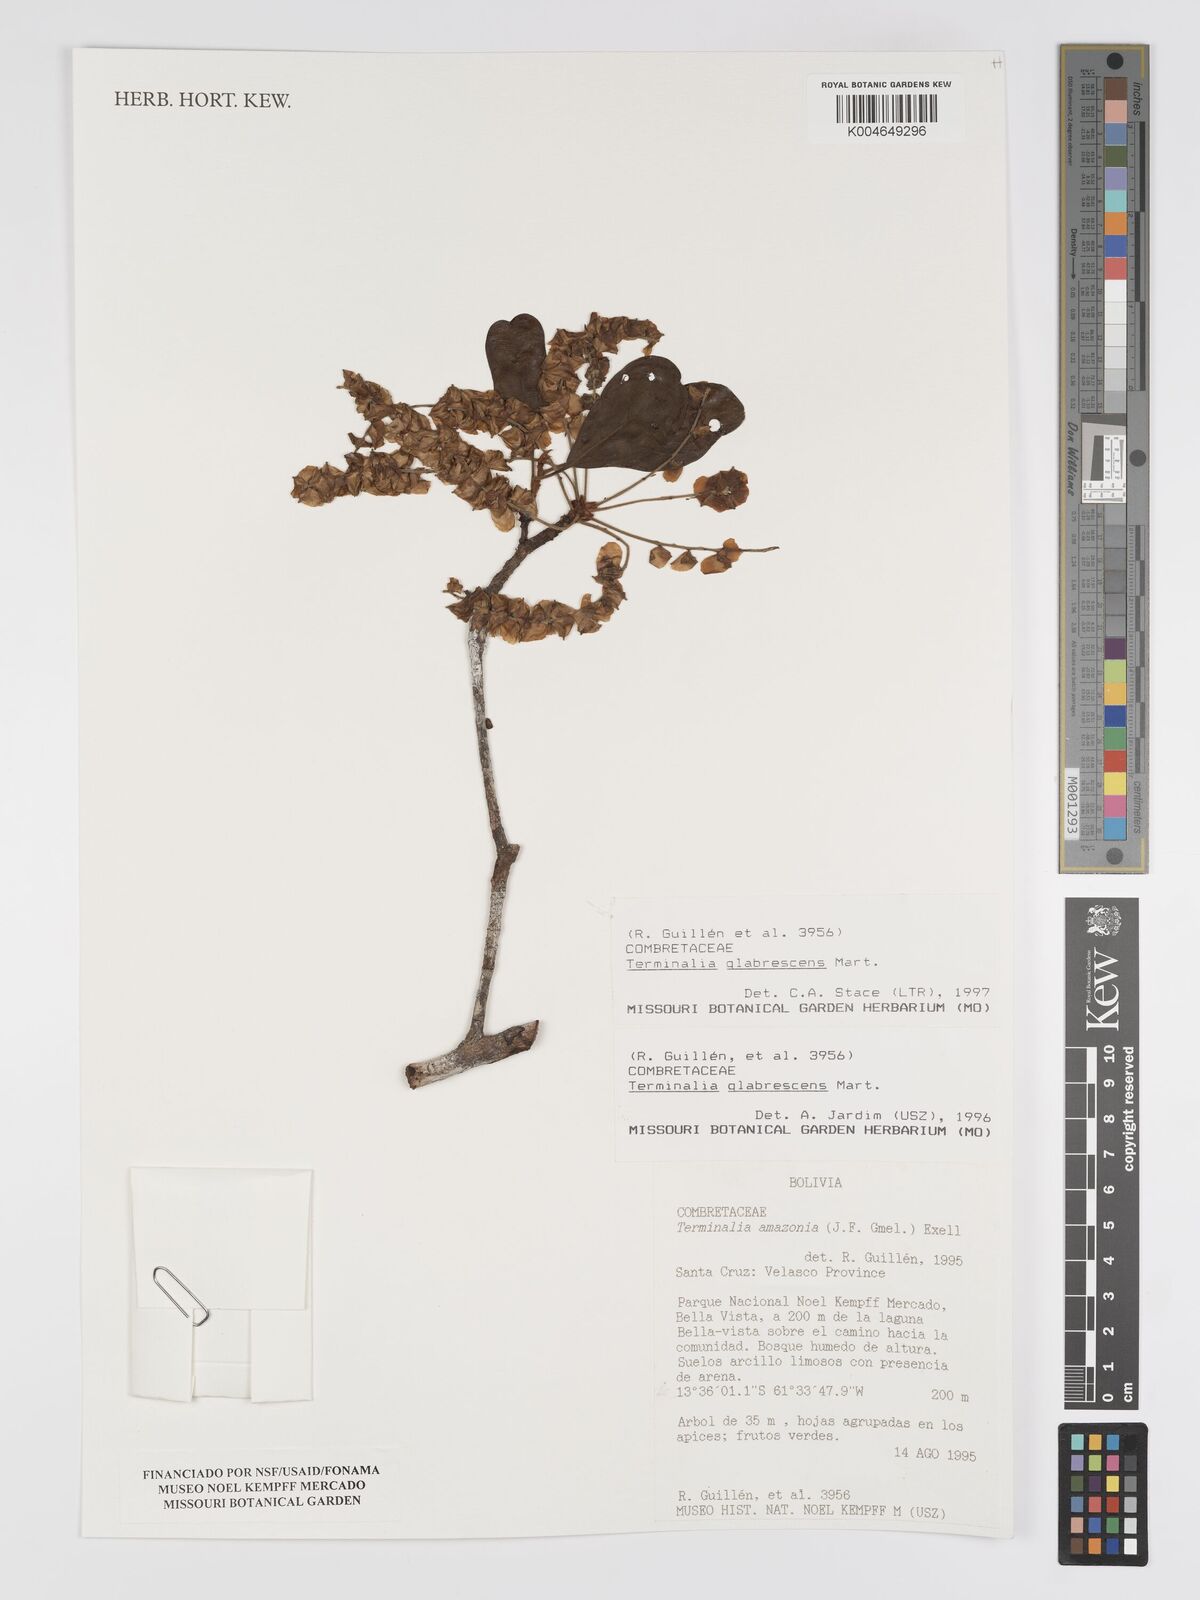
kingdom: Plantae
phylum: Tracheophyta
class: Magnoliopsida
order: Myrtales
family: Combretaceae
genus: Terminalia
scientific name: Terminalia glabrescens
